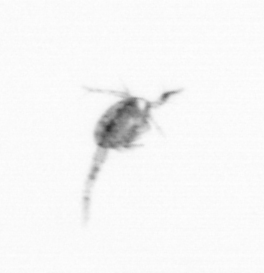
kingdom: Animalia
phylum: Arthropoda
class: Copepoda
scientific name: Copepoda
